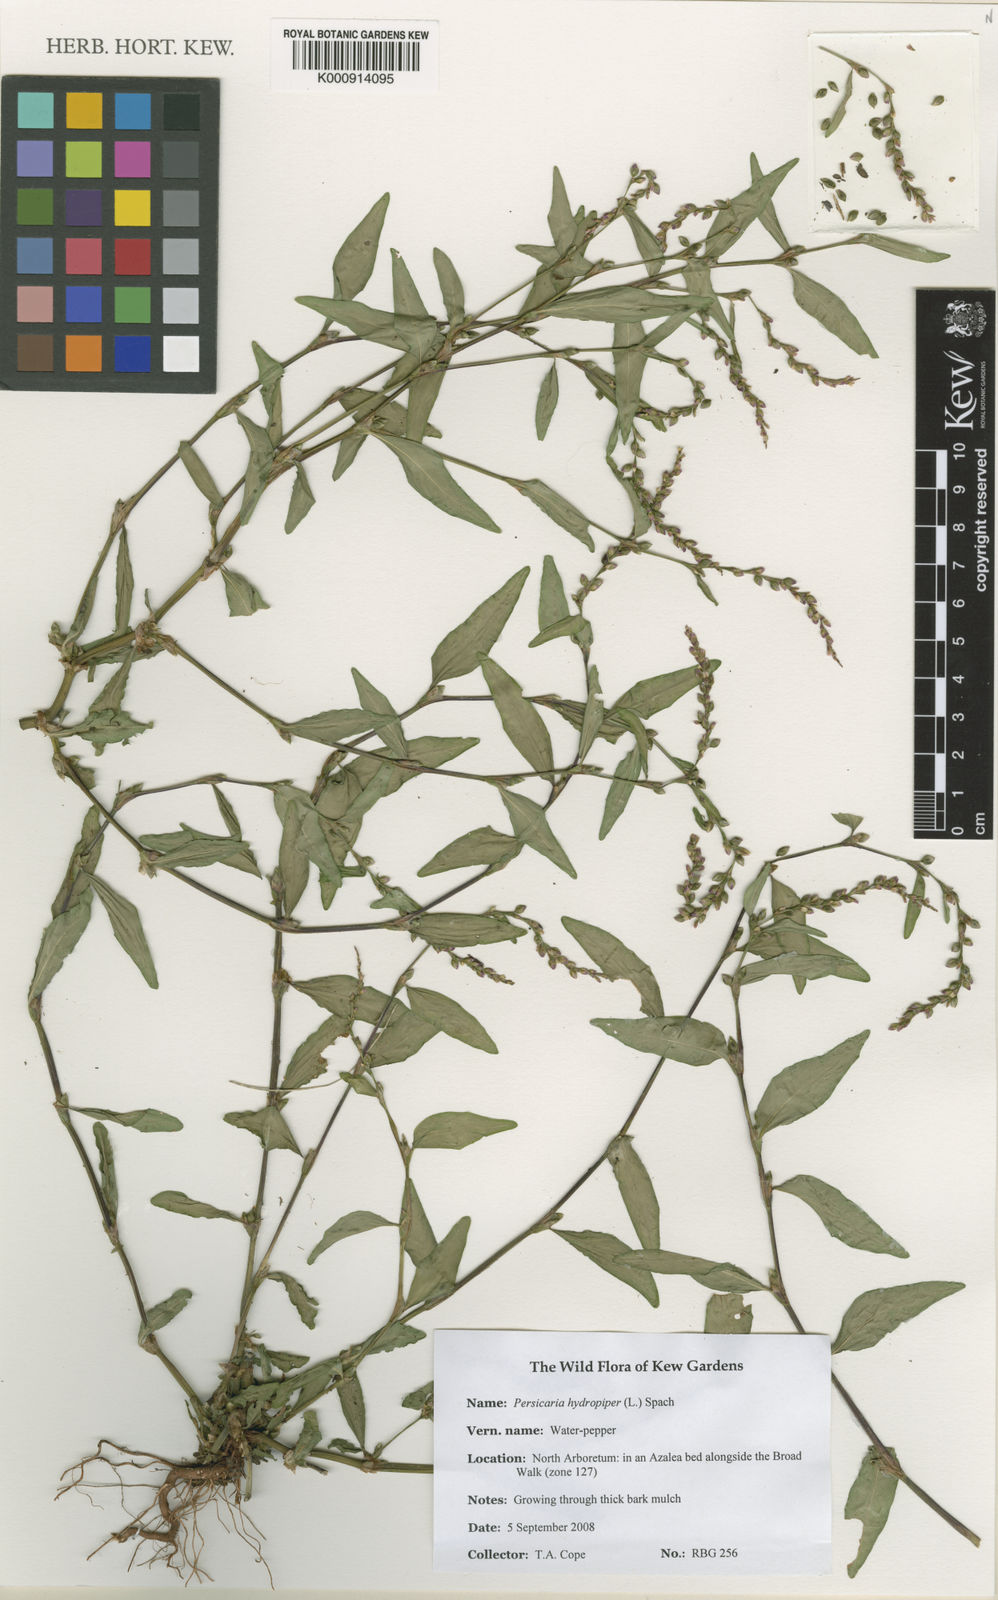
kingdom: Plantae
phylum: Tracheophyta
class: Magnoliopsida
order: Caryophyllales
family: Polygonaceae
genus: Persicaria
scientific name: Persicaria
